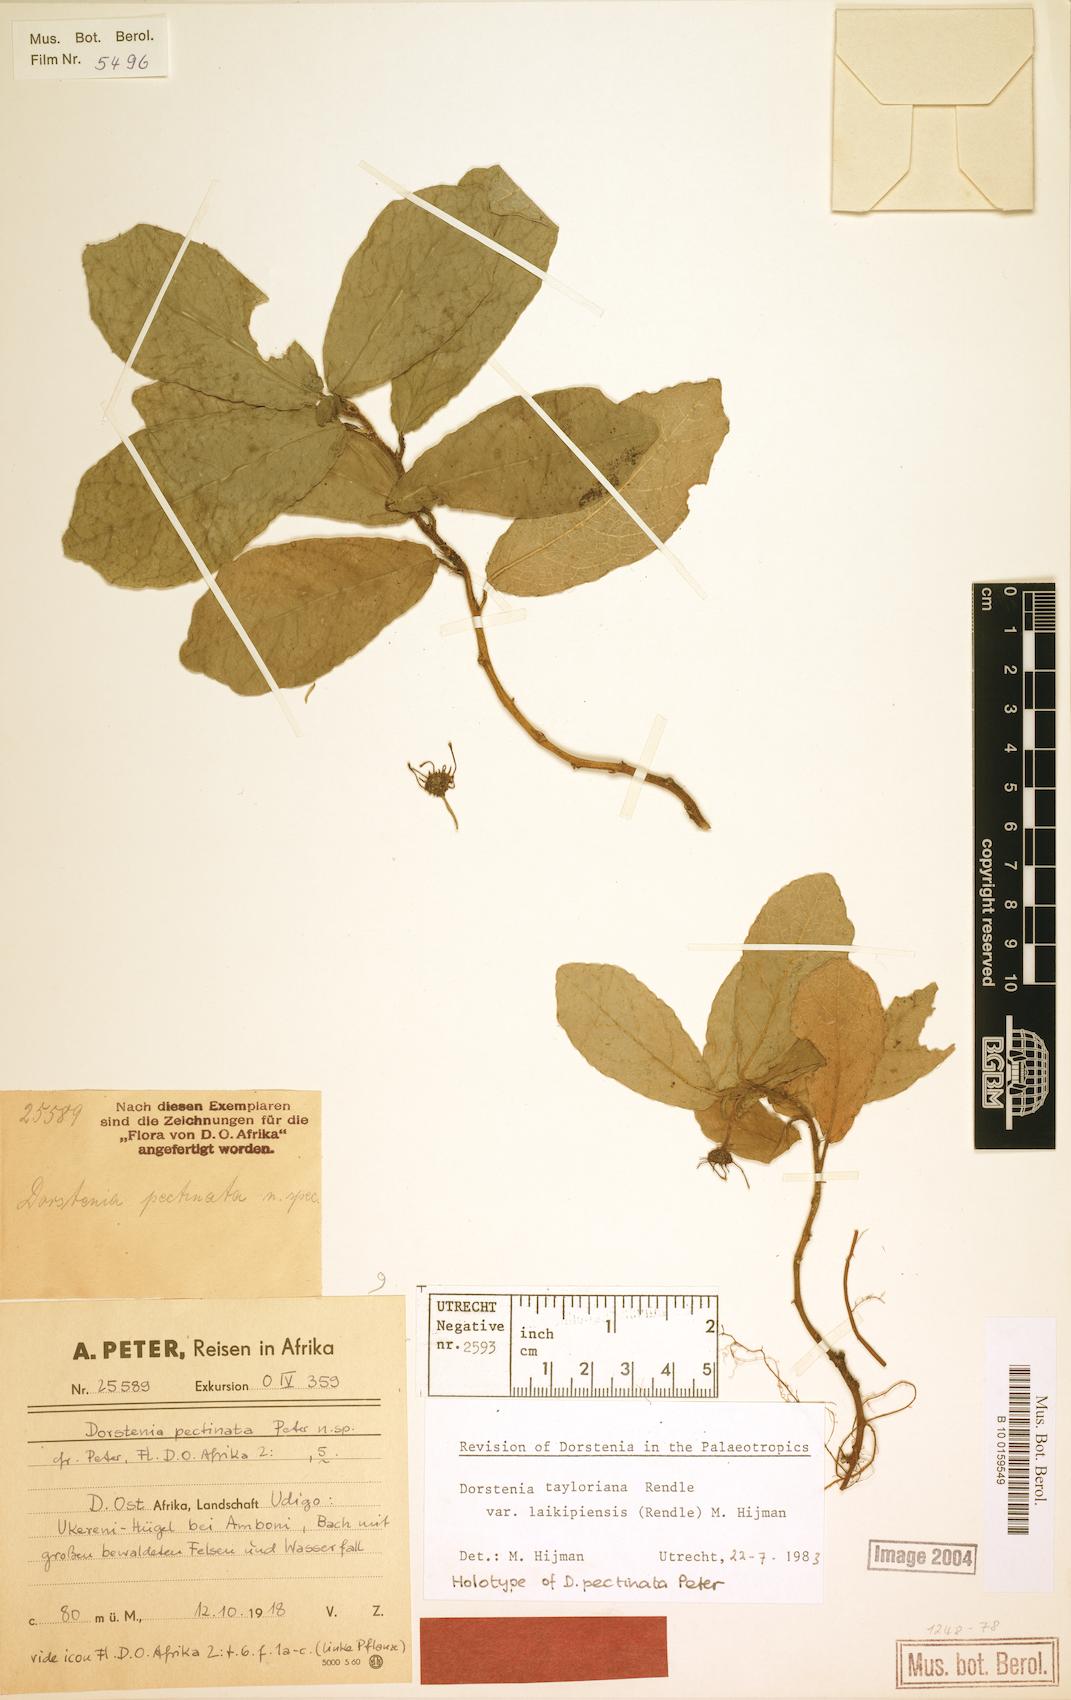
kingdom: Plantae
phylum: Tracheophyta
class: Magnoliopsida
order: Rosales
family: Moraceae
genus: Dorstenia
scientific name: Dorstenia tayloriana
